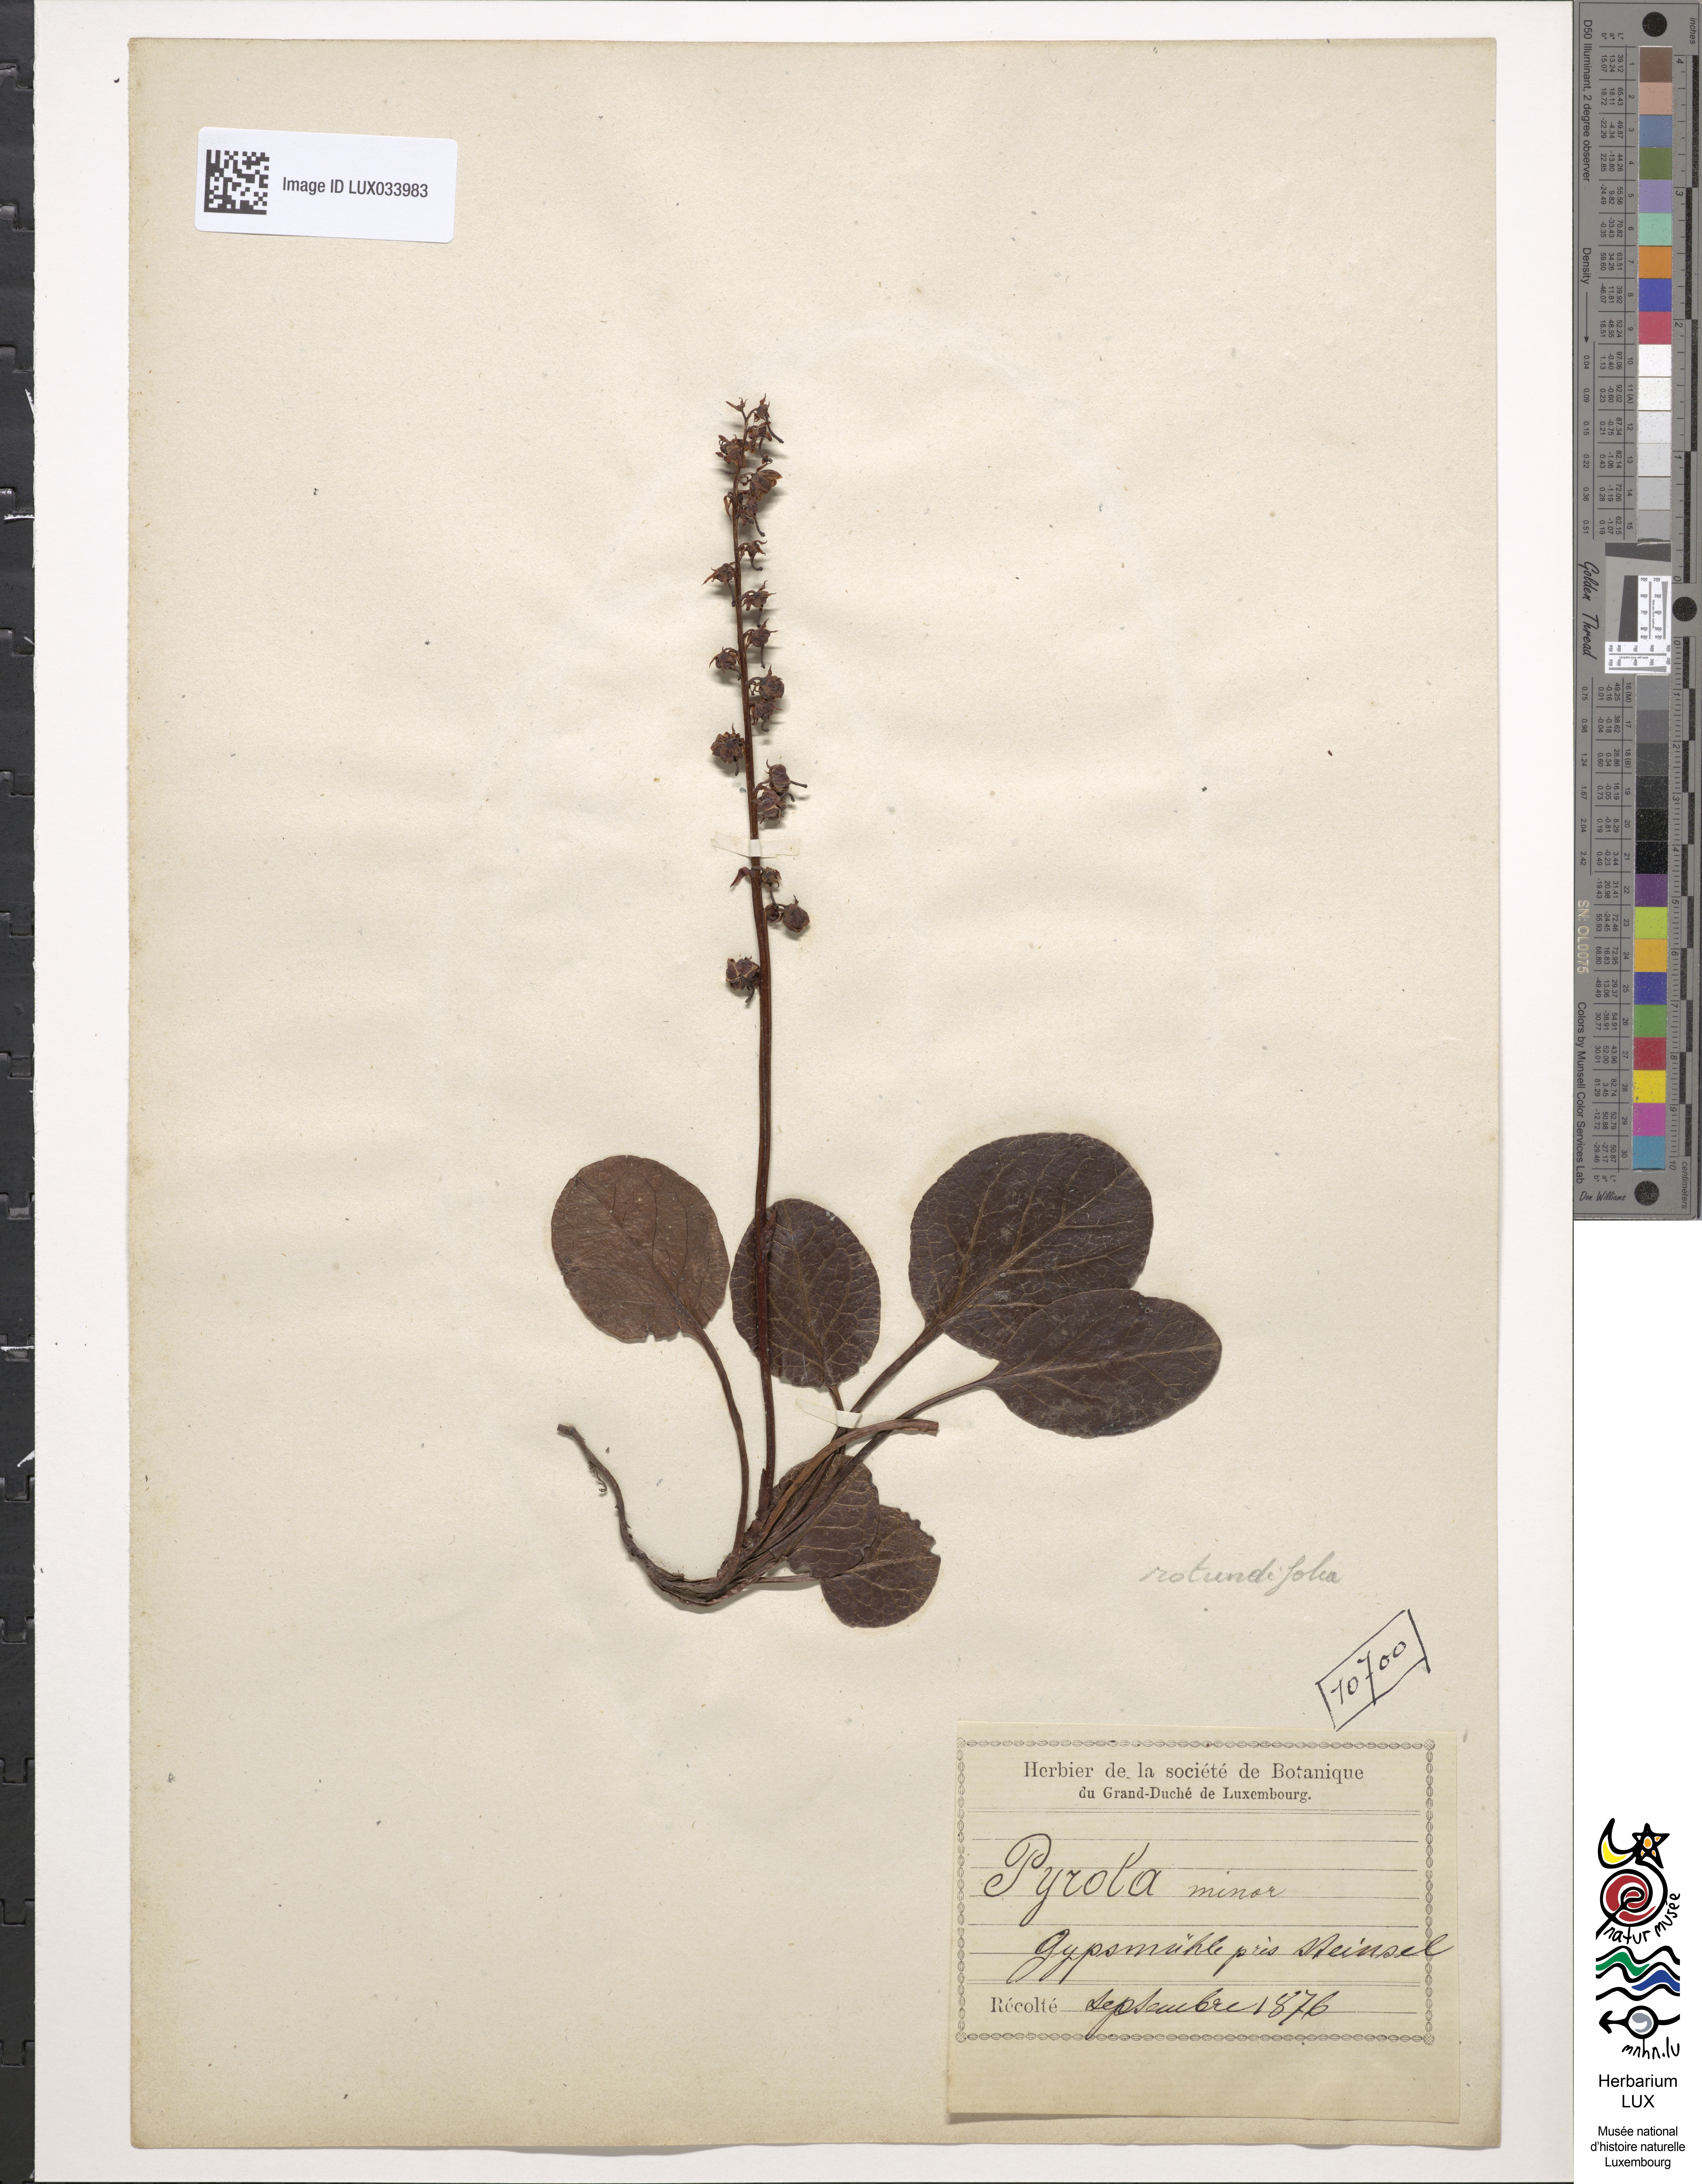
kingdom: Plantae
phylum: Tracheophyta
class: Magnoliopsida
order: Ericales
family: Ericaceae
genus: Pyrola
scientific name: Pyrola rotundifolia
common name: Round-leaved wintergreen
